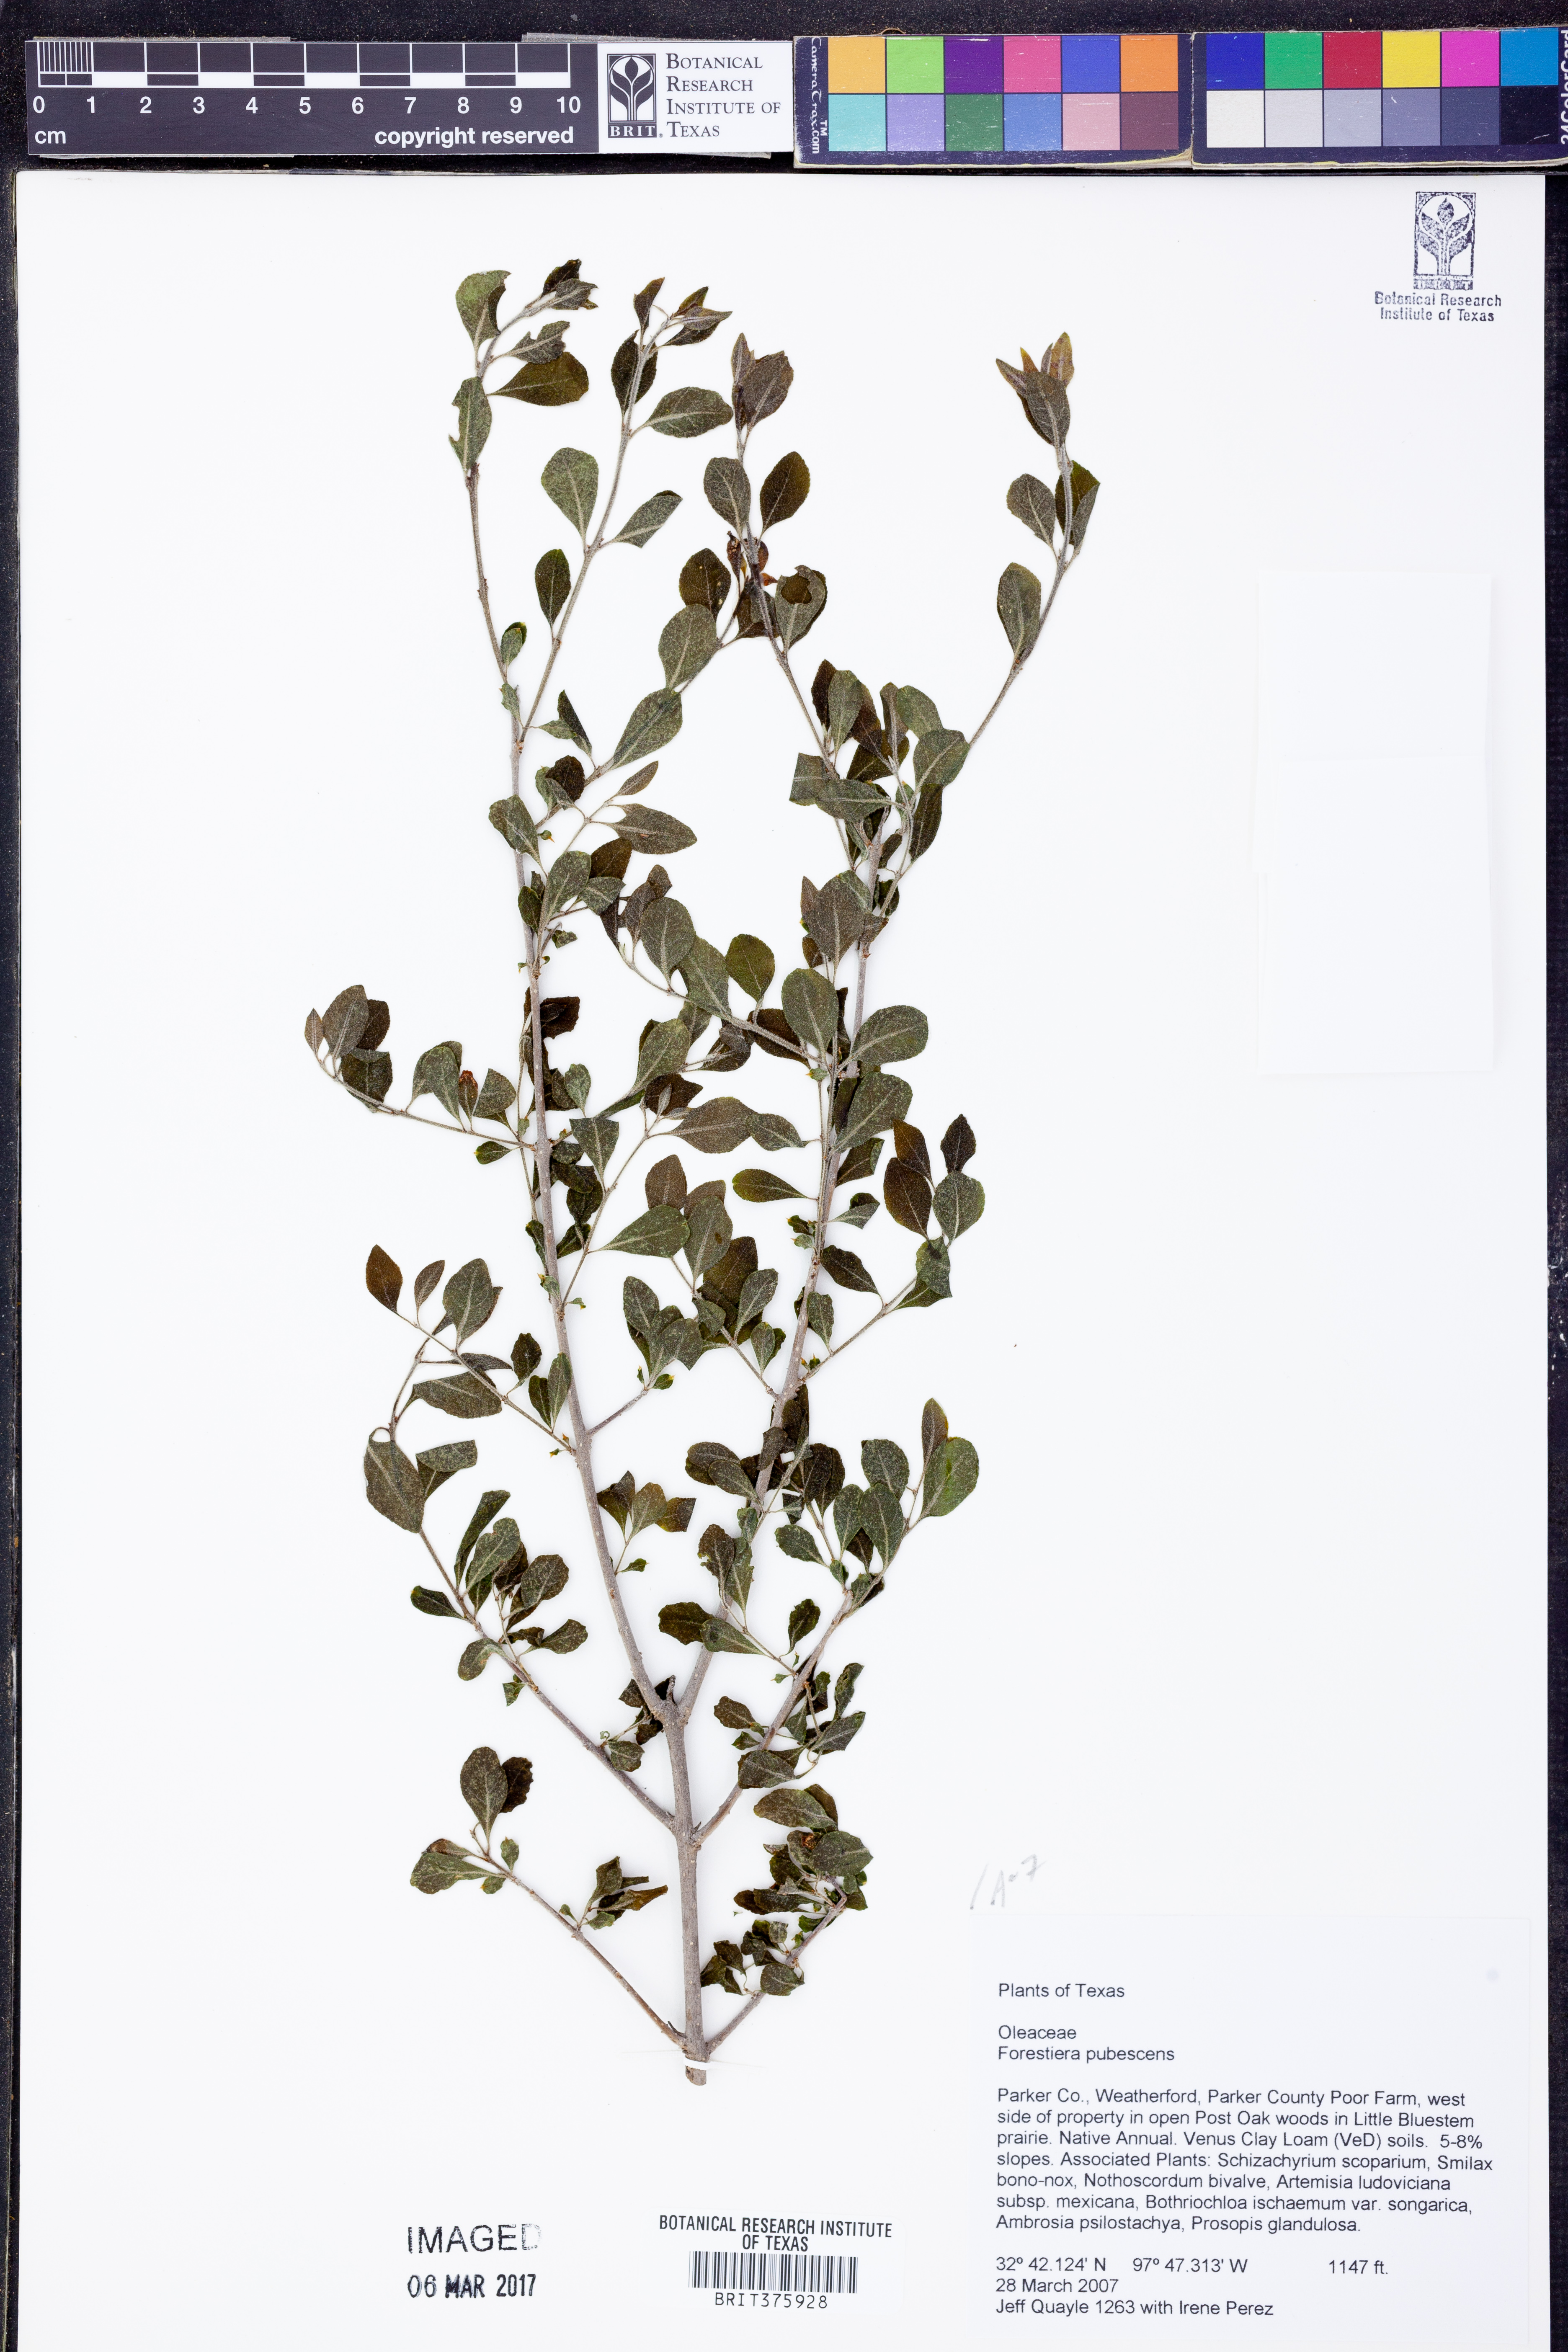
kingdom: Plantae
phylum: Tracheophyta
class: Magnoliopsida
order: Lamiales
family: Oleaceae
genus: Forestiera
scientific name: Forestiera pubescens
